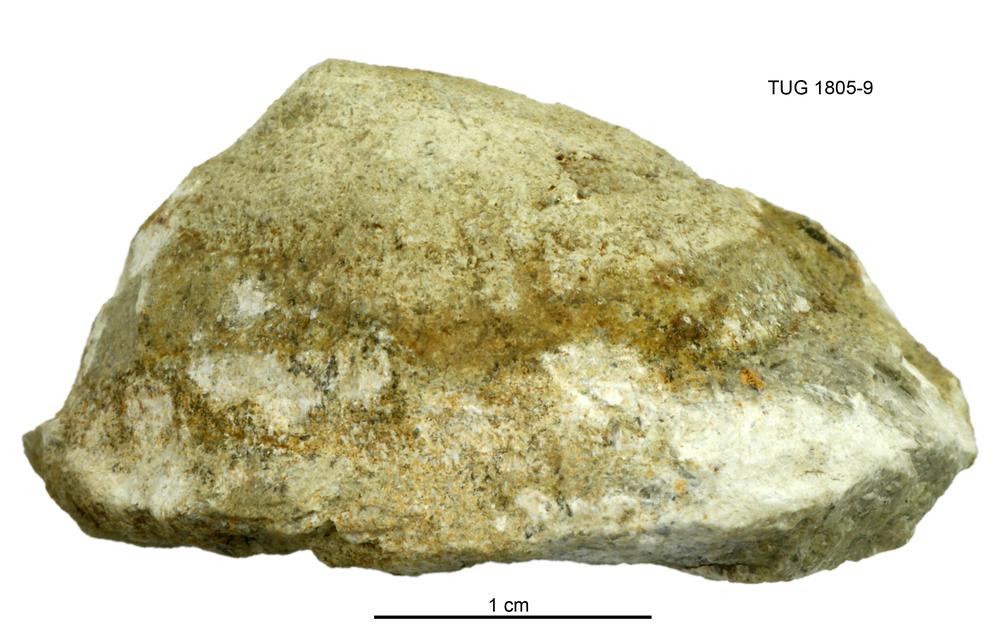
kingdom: Animalia
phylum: Mollusca
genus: Halophiala
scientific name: Halophiala
